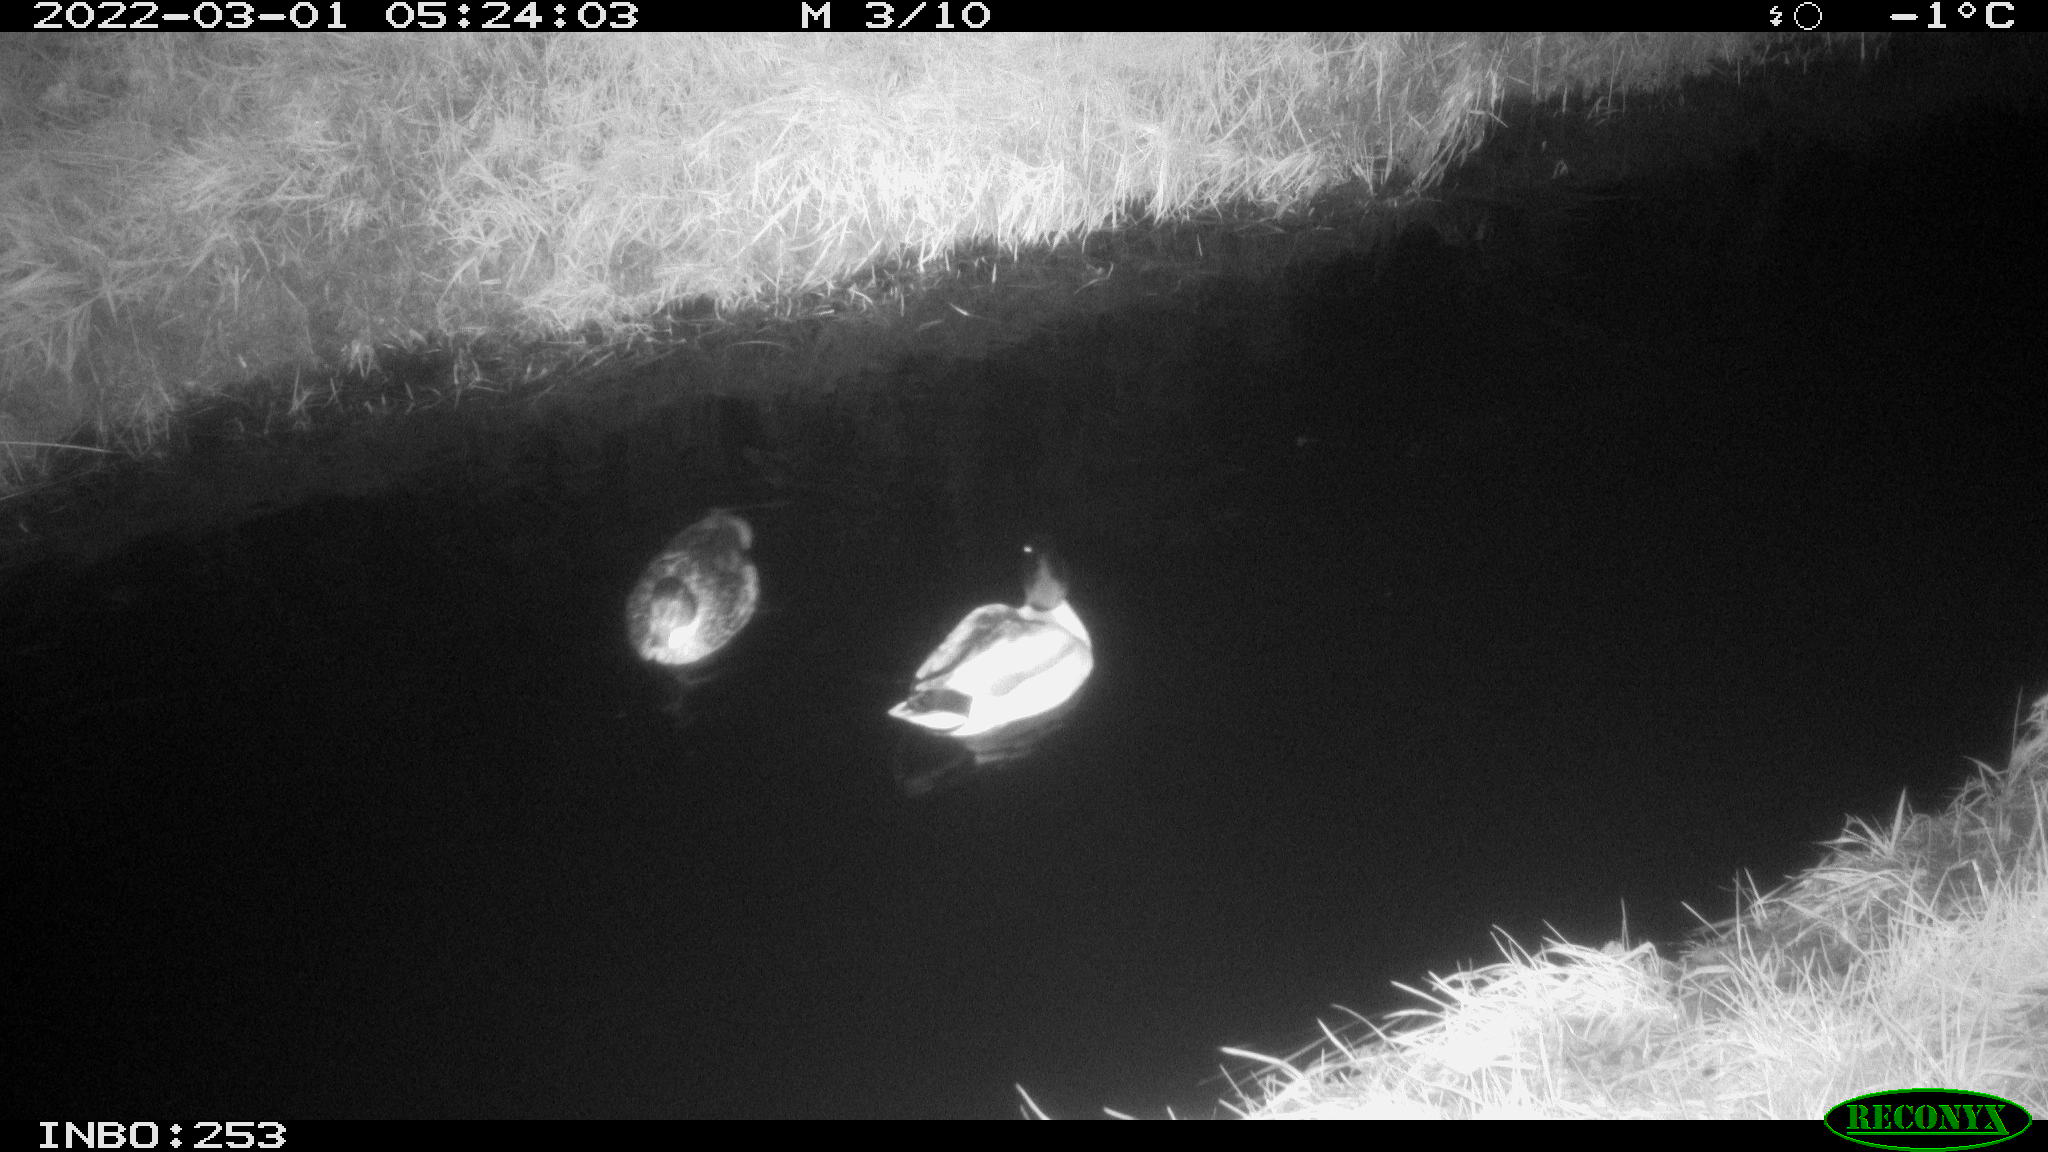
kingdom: Animalia
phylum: Chordata
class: Aves
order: Anseriformes
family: Anatidae
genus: Anas
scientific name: Anas platyrhynchos
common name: Mallard
